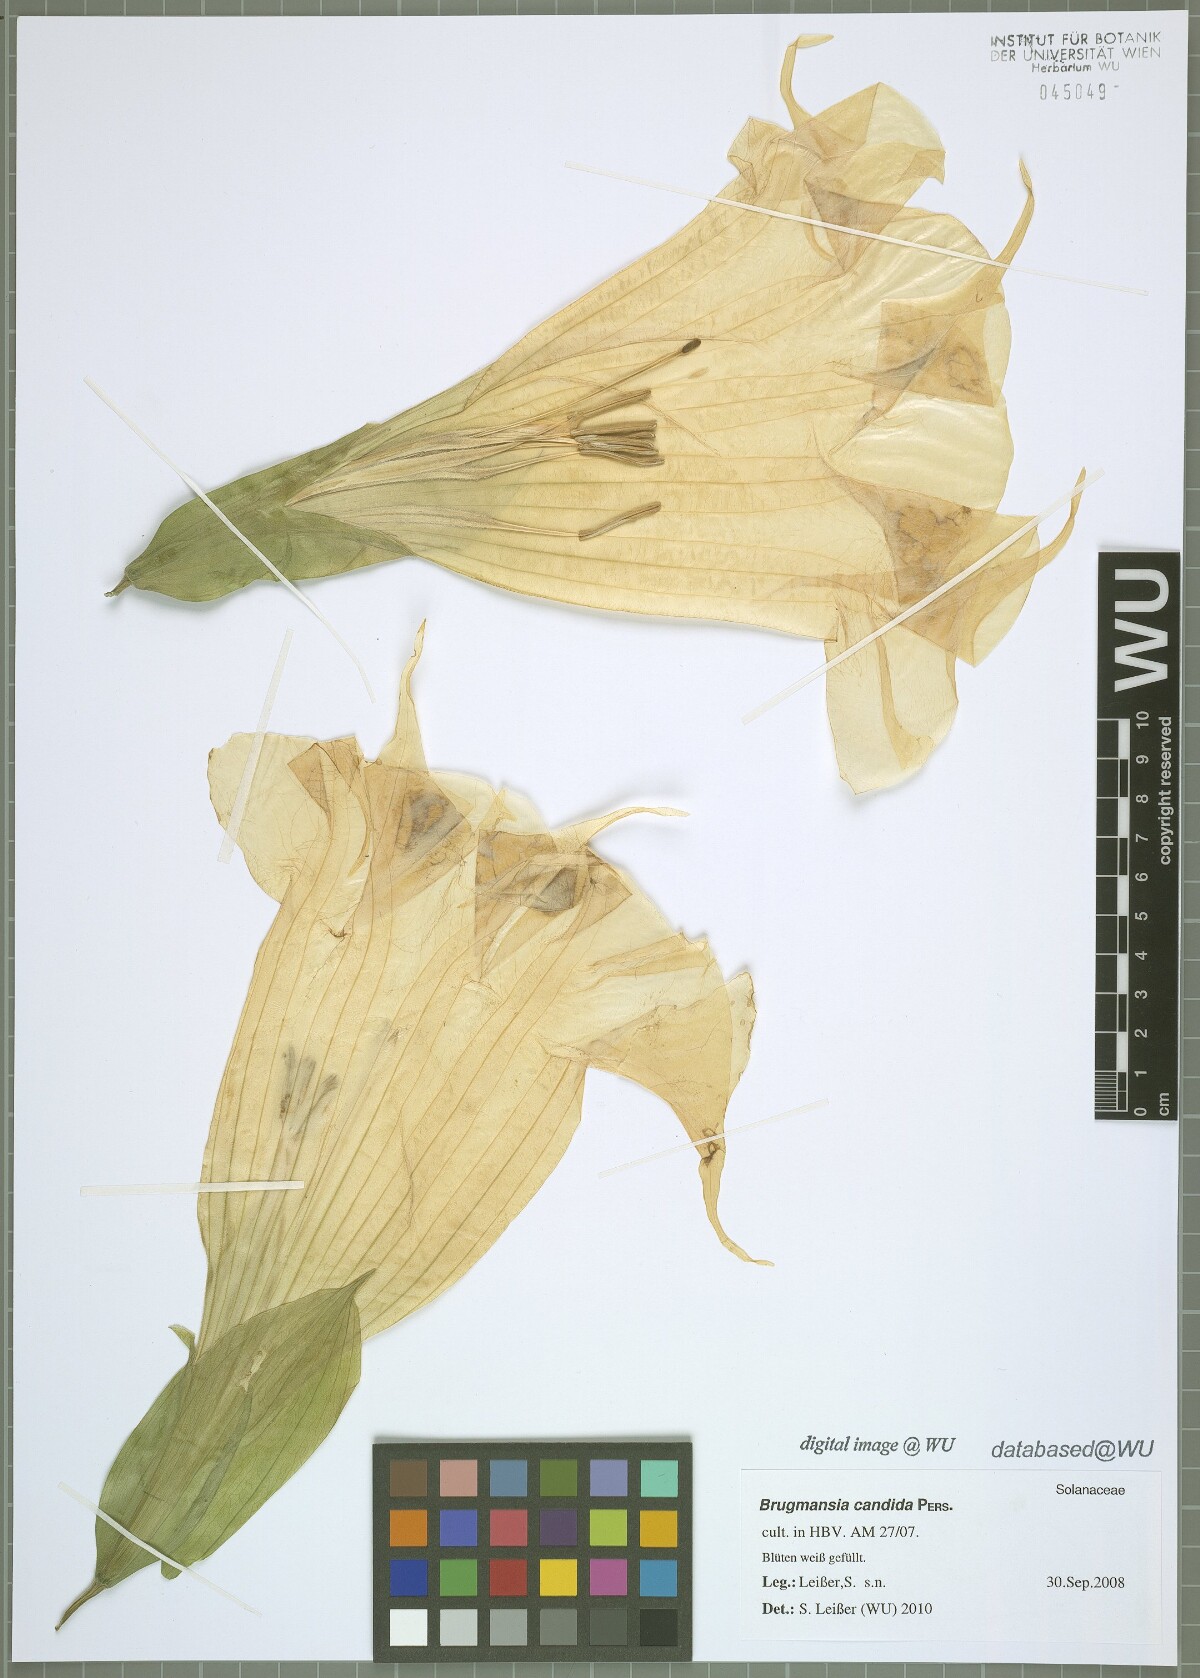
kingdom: Plantae
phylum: Tracheophyta
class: Magnoliopsida
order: Solanales
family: Solanaceae
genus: Brugmansia
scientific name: Brugmansia candida
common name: Angel's-trumpet
